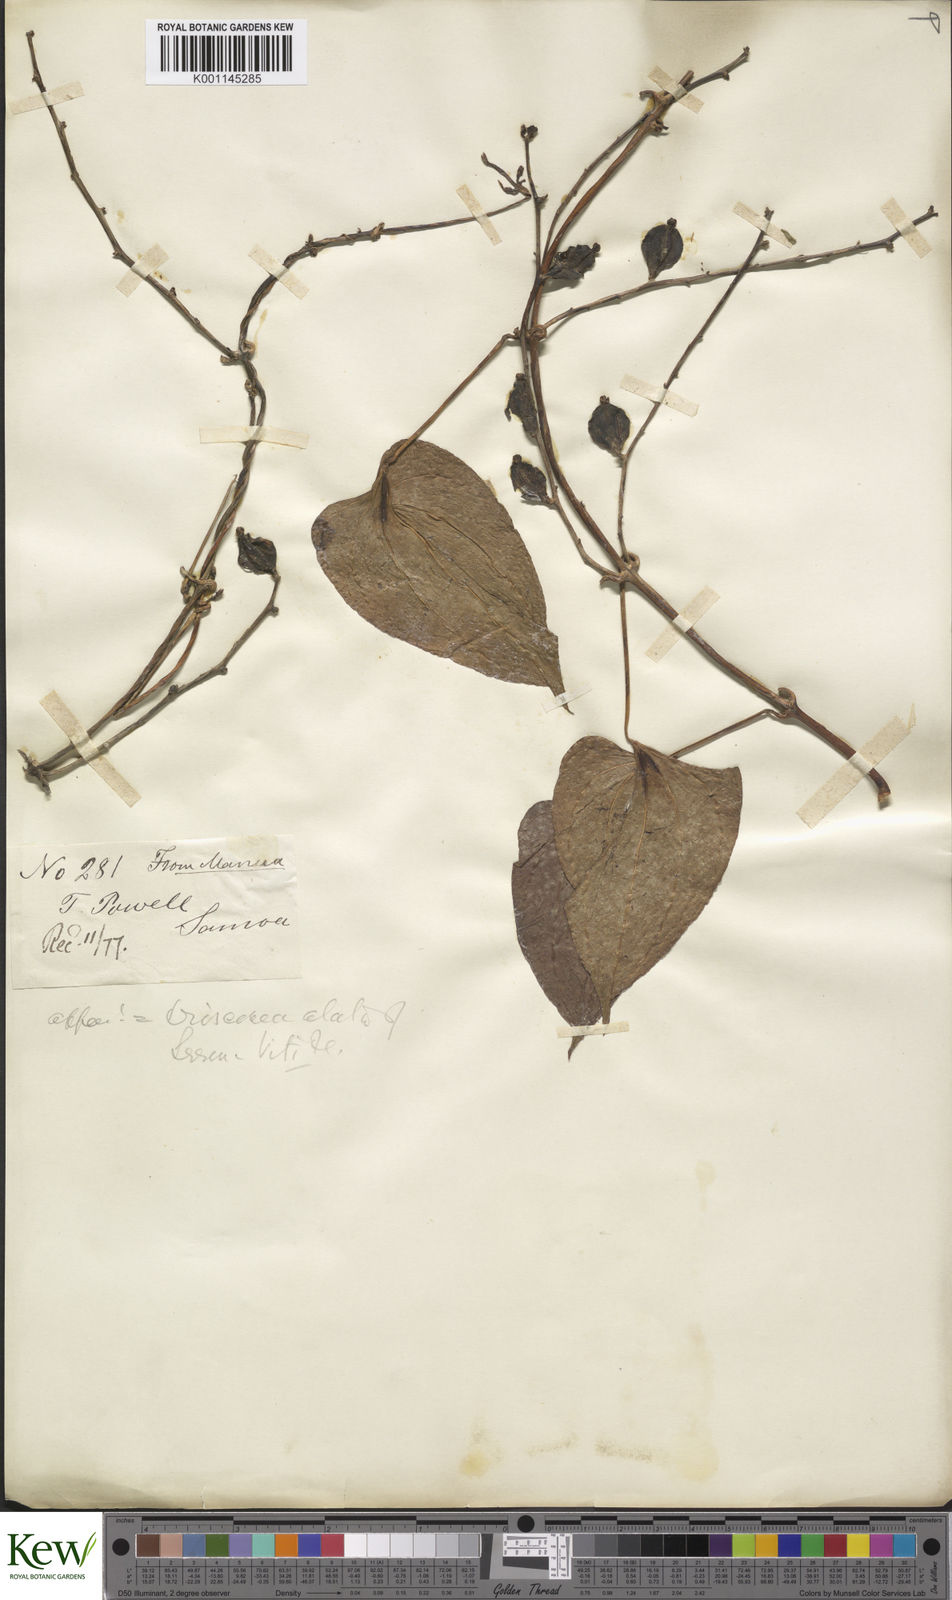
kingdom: Plantae
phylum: Tracheophyta
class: Liliopsida
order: Dioscoreales
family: Dioscoreaceae
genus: Dioscorea
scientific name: Dioscorea alata
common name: Water yam
